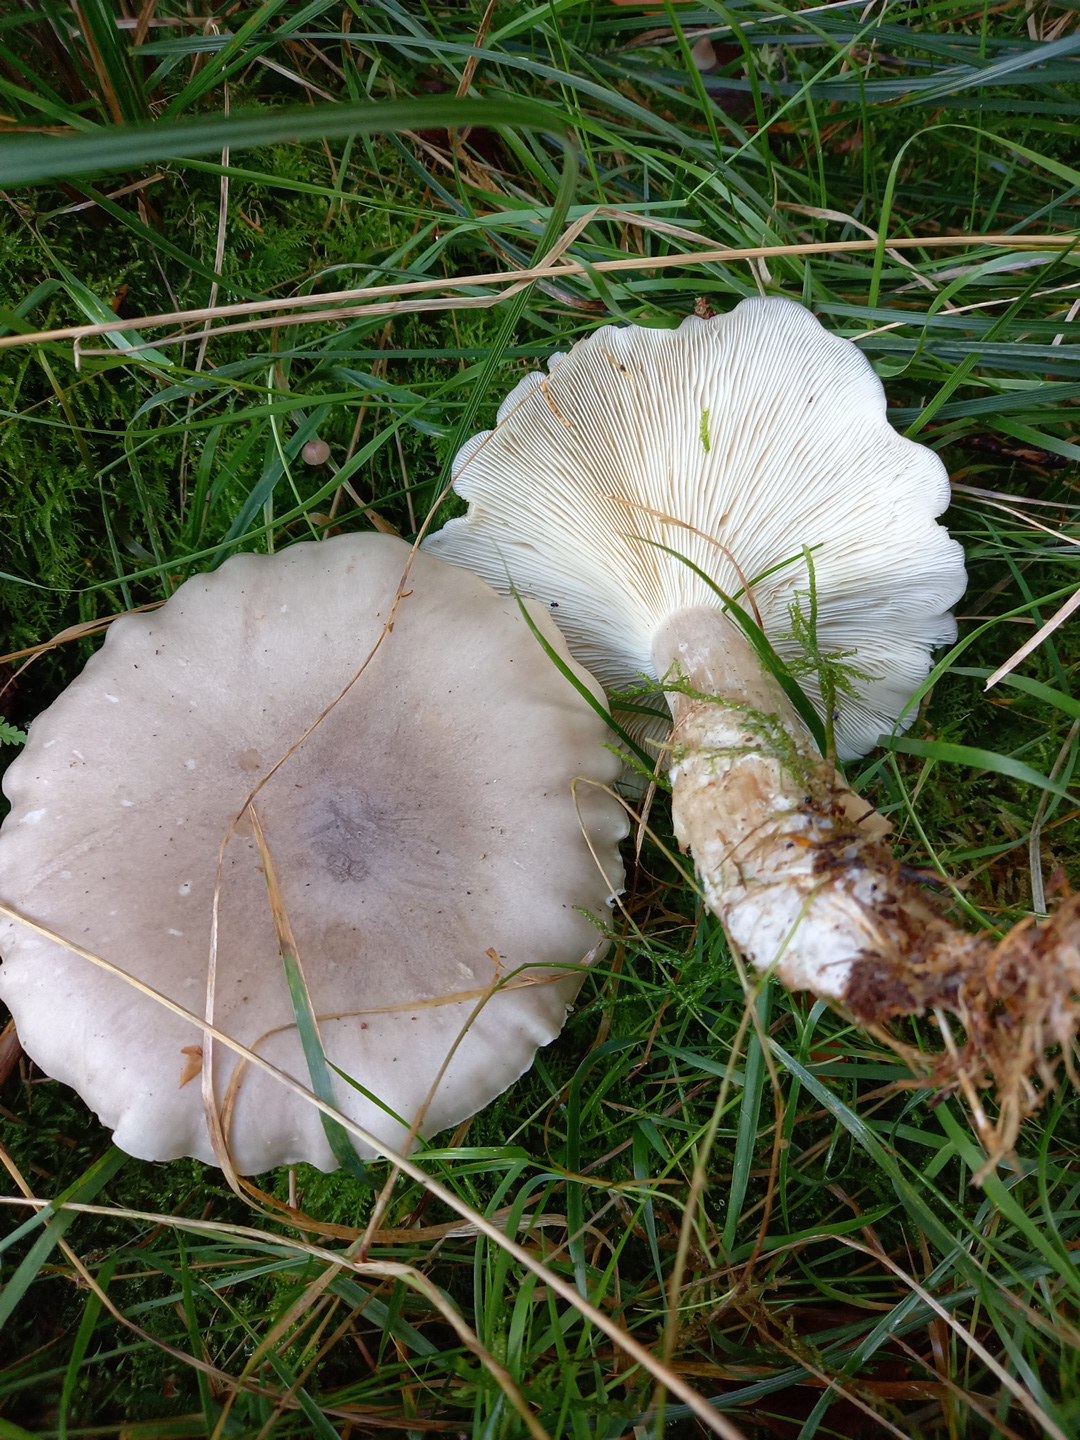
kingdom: Fungi
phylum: Basidiomycota
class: Agaricomycetes
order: Agaricales
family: Tricholomataceae
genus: Clitocybe
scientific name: Clitocybe nebularis
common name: tåge-tragthat
